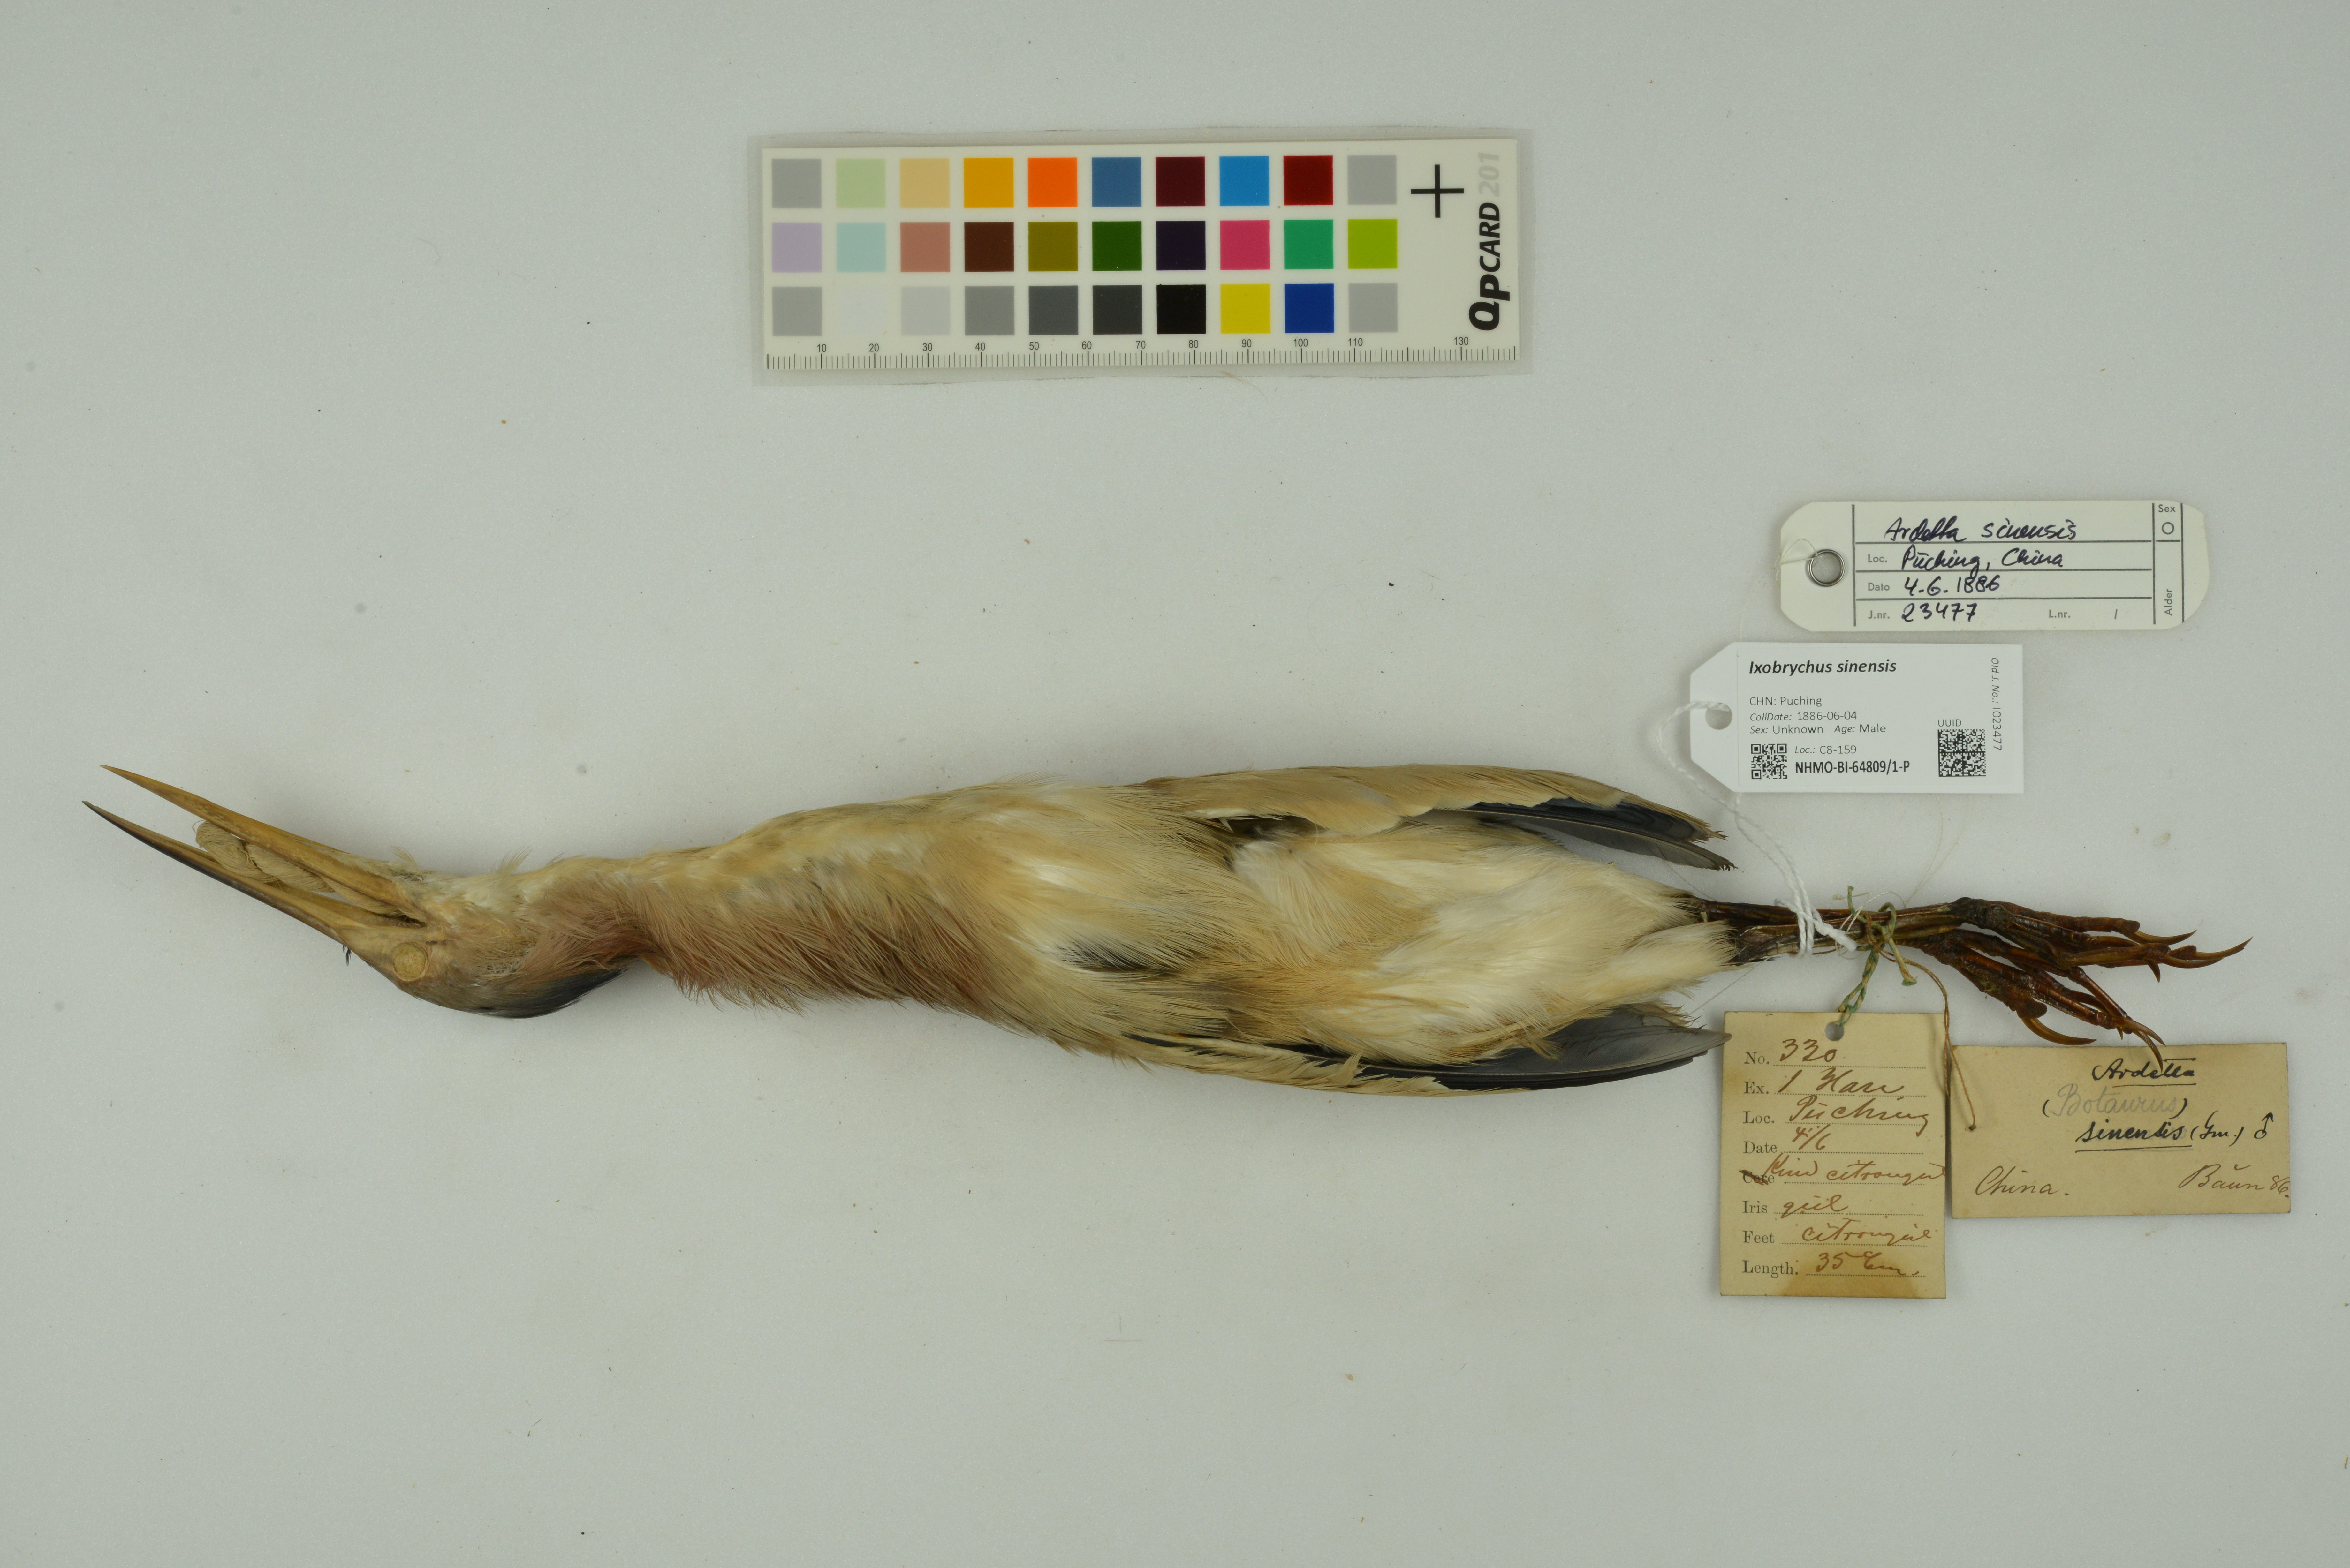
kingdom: Animalia
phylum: Chordata
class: Aves
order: Pelecaniformes
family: Ardeidae
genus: Ixobrychus
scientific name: Ixobrychus sinensis
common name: Yellow bittern
